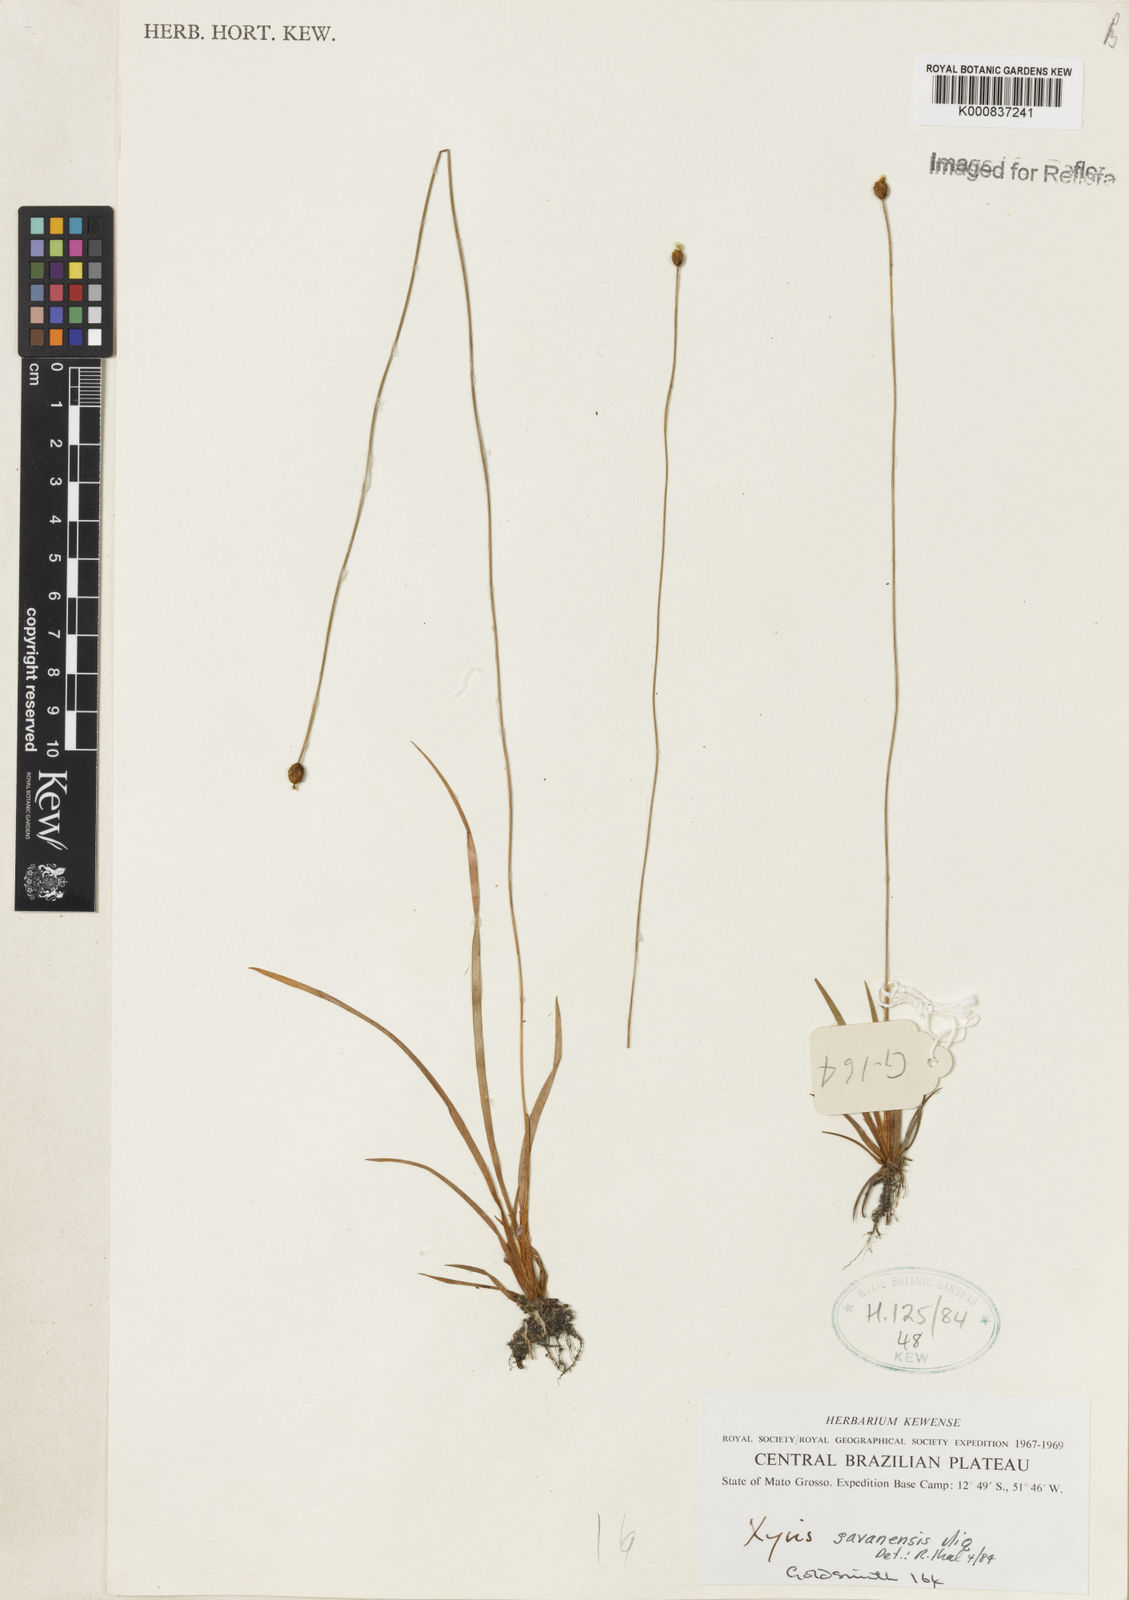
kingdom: Plantae
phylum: Tracheophyta
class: Liliopsida
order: Poales
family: Xyridaceae
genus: Xyris
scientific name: Xyris savanensis
